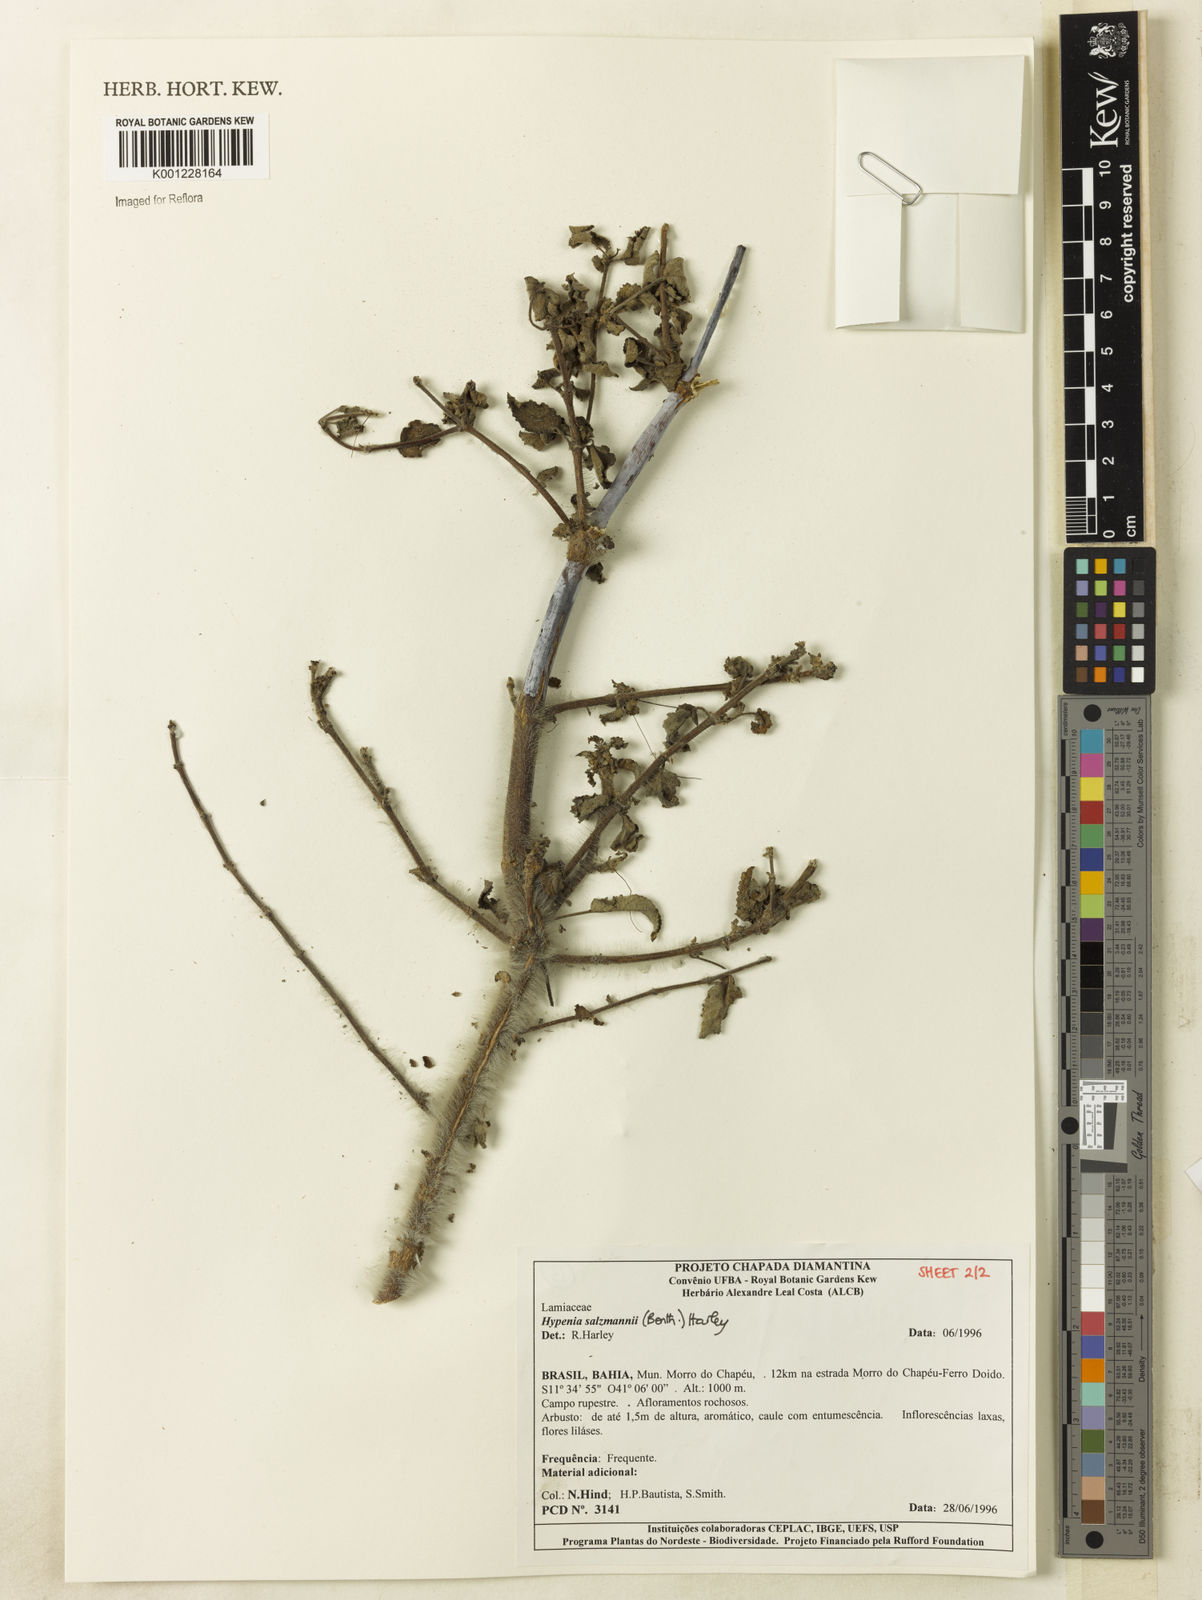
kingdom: Plantae
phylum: Tracheophyta
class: Magnoliopsida
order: Lamiales
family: Lamiaceae
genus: Hypenia
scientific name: Hypenia salzmannii
